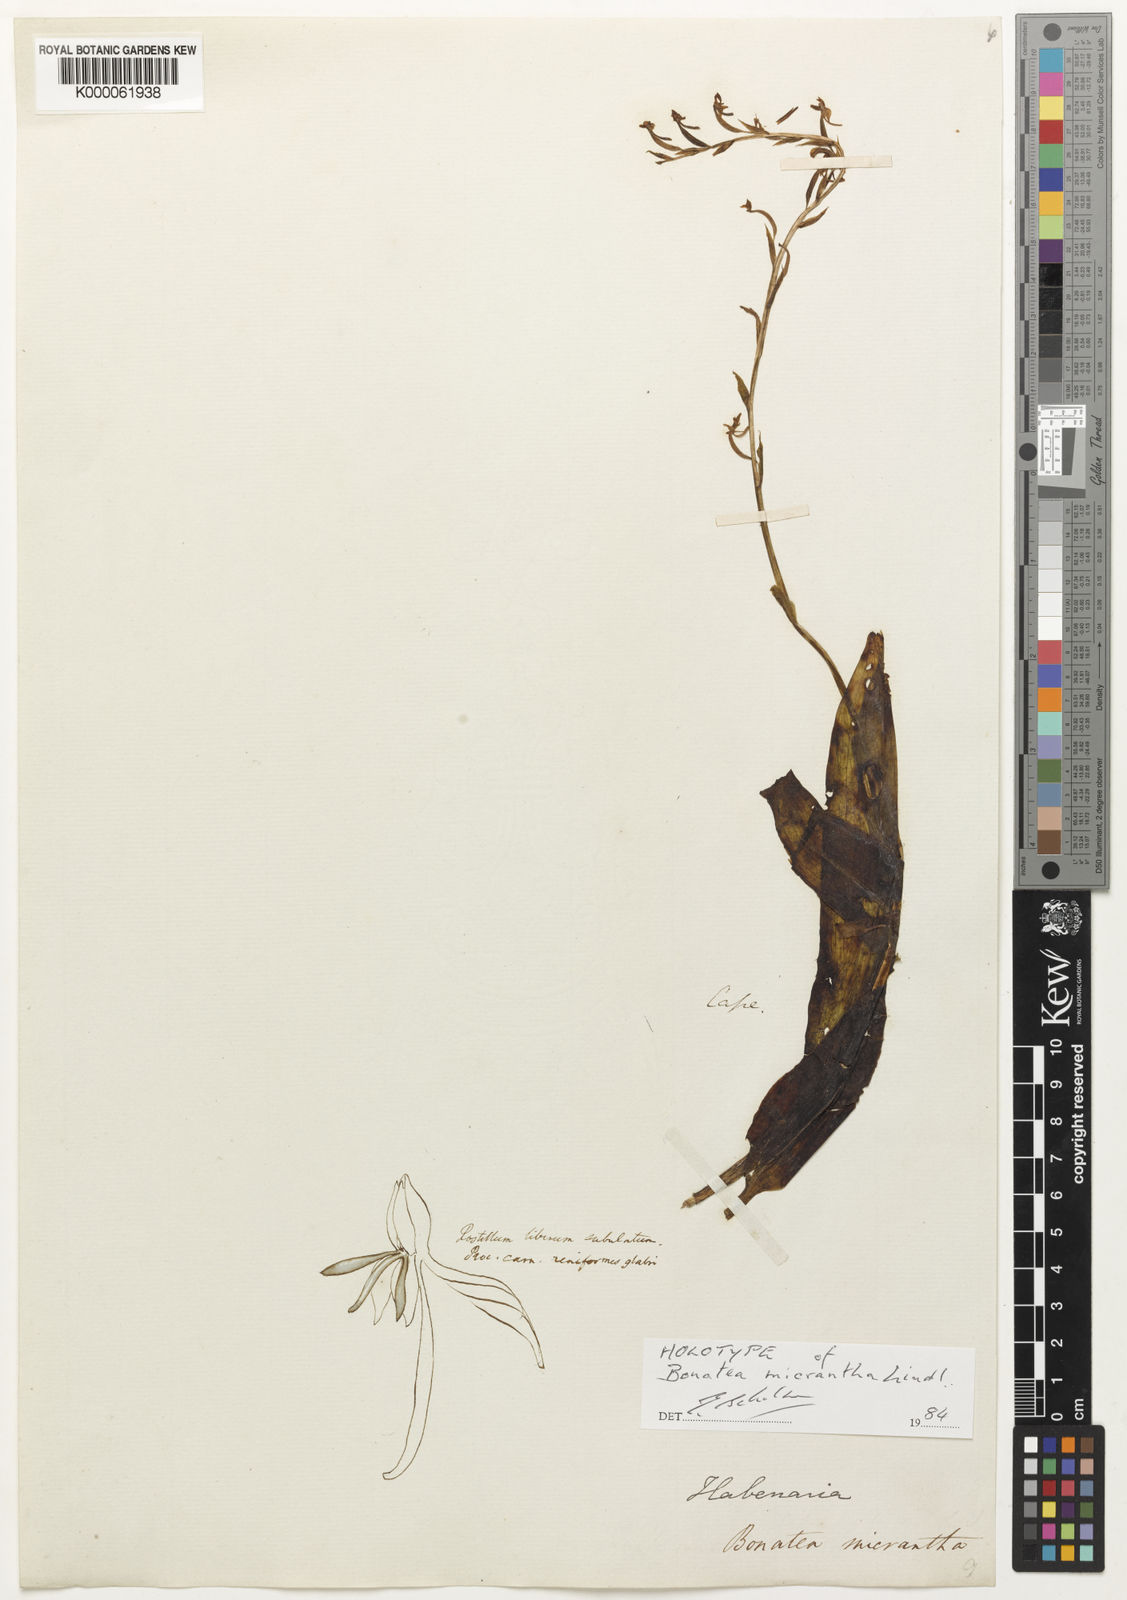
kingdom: Plantae
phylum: Tracheophyta
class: Liliopsida
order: Asparagales
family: Orchidaceae
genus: Habenaria
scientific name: Habenaria
